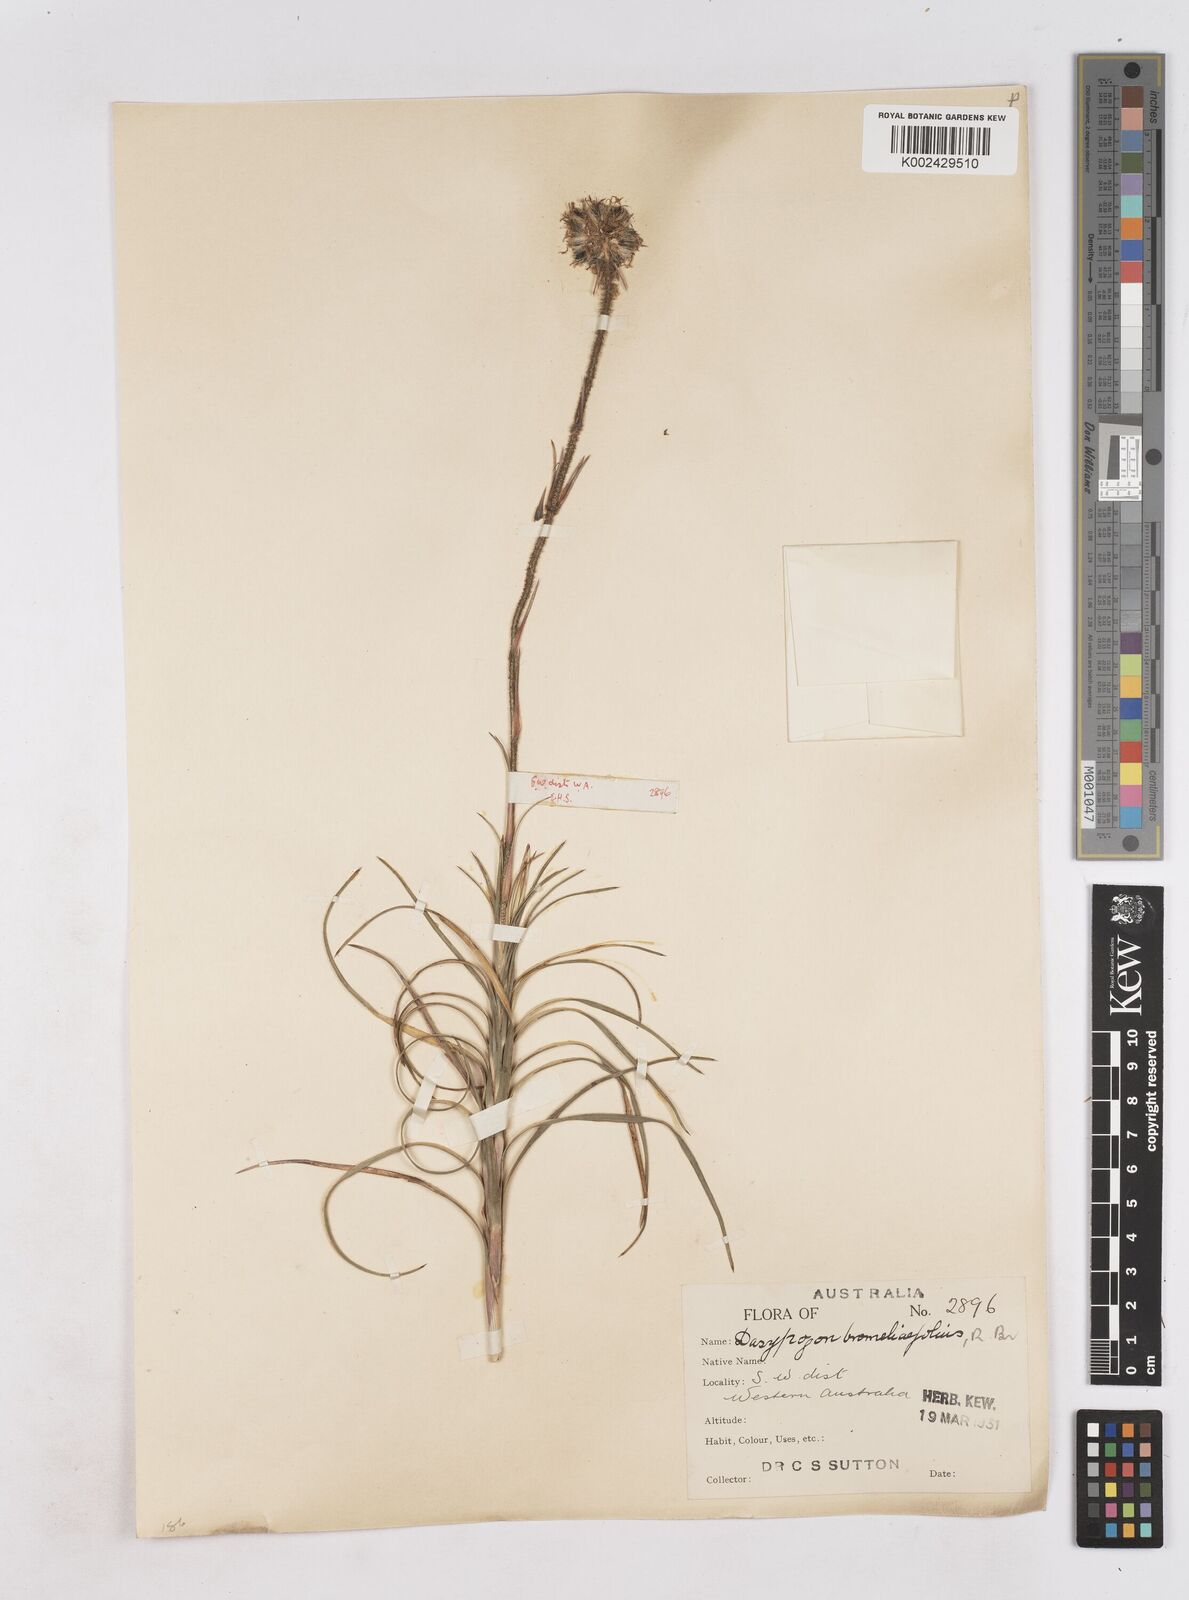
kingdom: Plantae
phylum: Tracheophyta
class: Liliopsida
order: Arecales
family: Dasypogonaceae
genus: Dasypogon
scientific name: Dasypogon bromeliifolius
